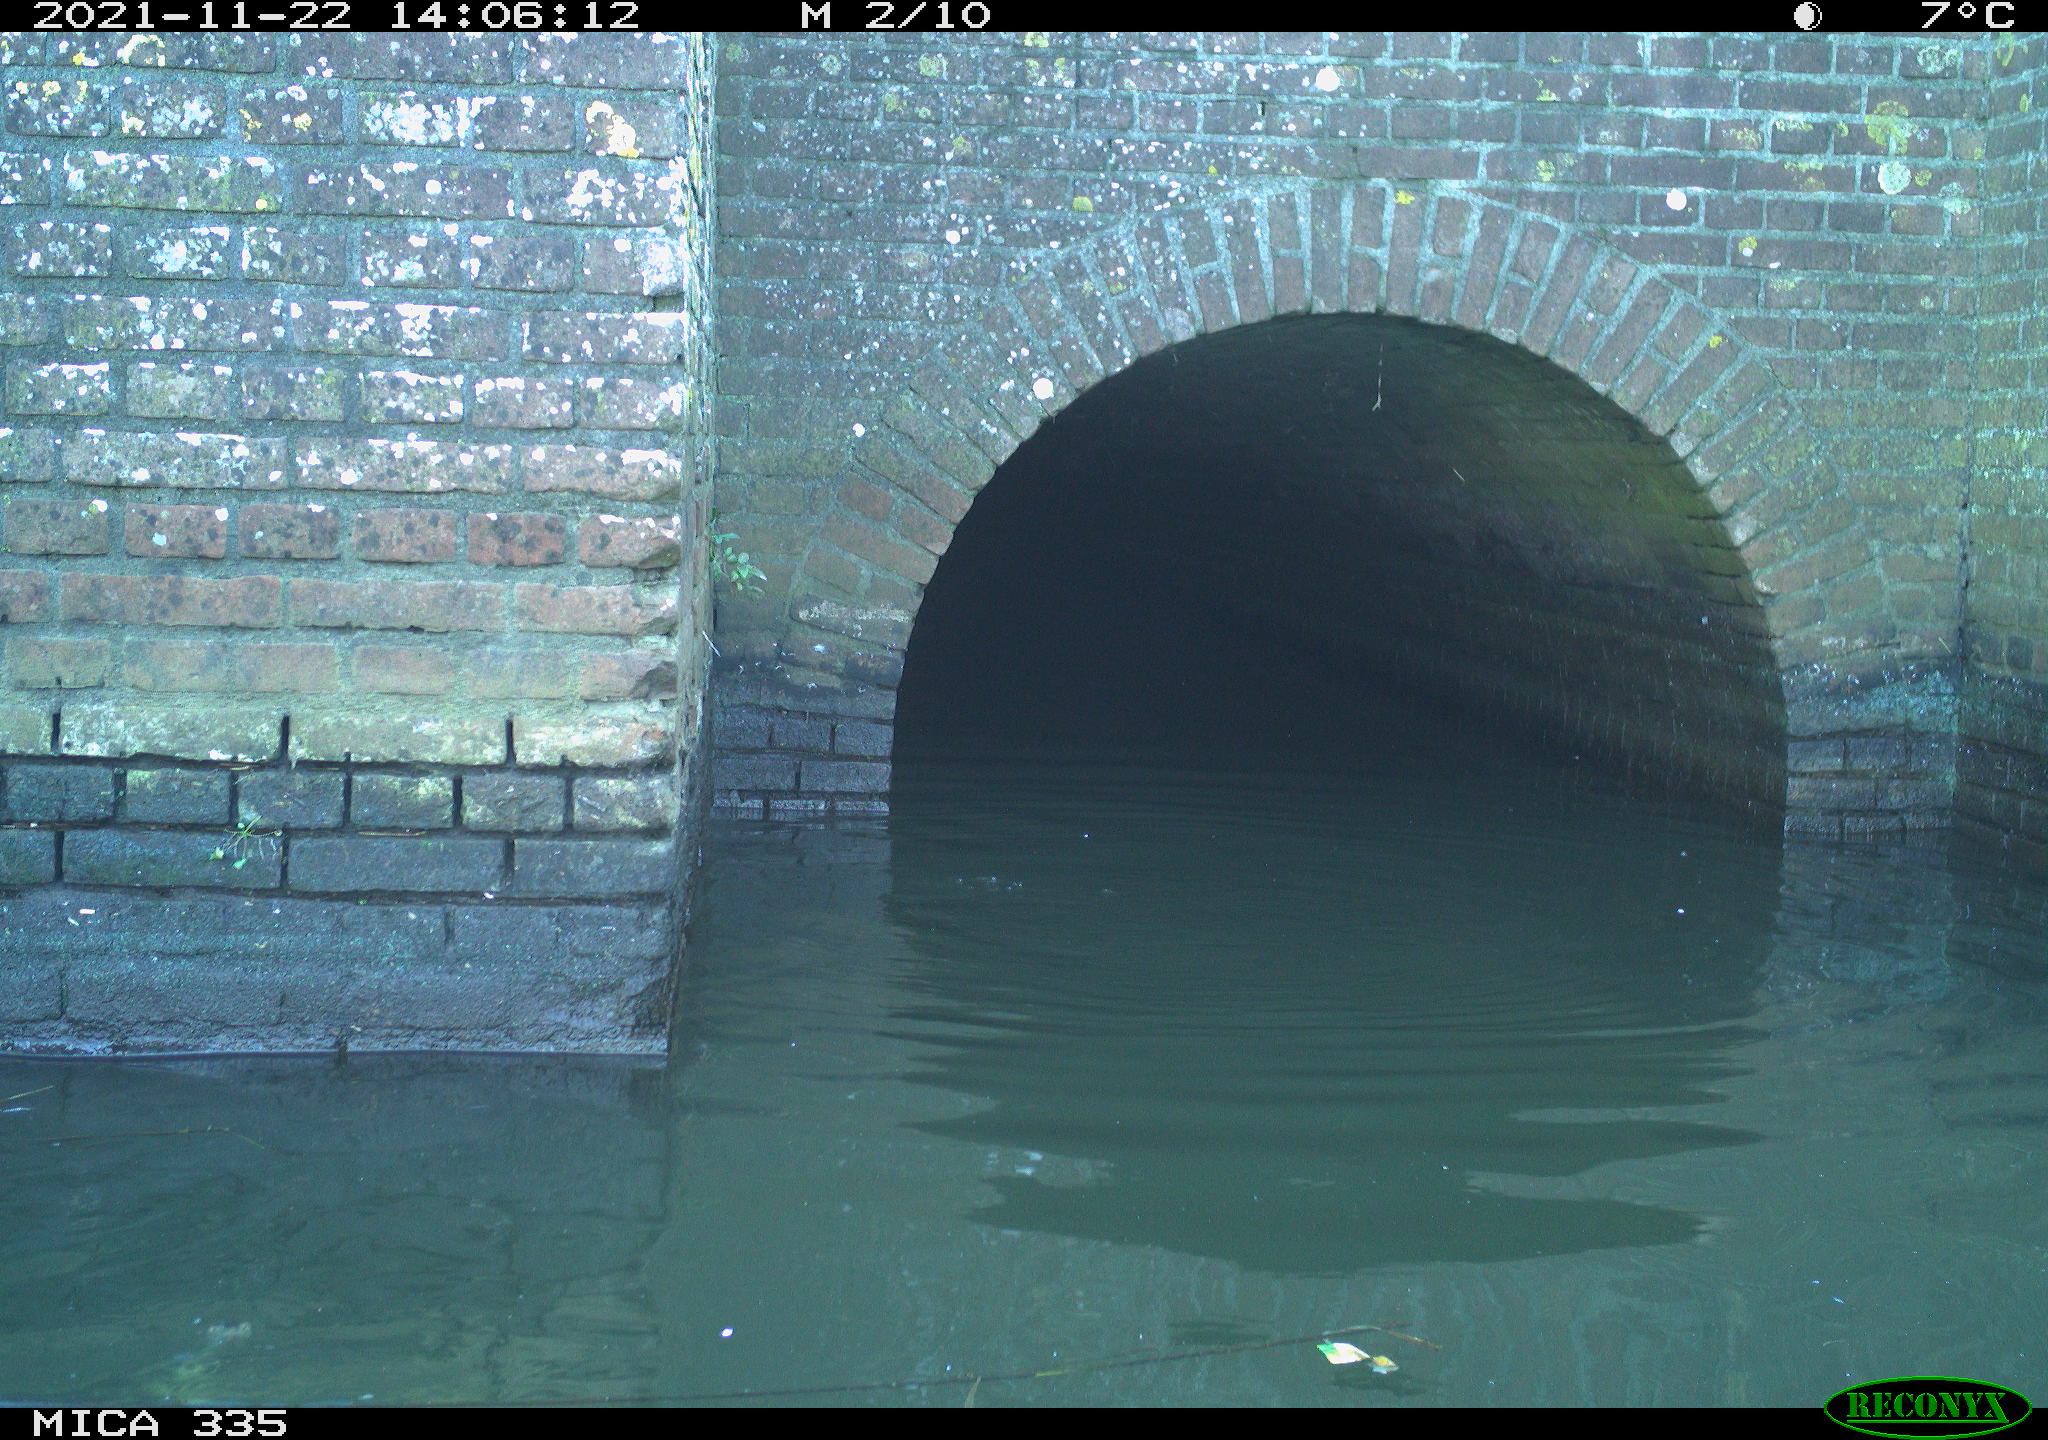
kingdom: Animalia
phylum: Chordata
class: Aves
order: Gruiformes
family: Rallidae
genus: Fulica
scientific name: Fulica atra
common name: Eurasian coot
